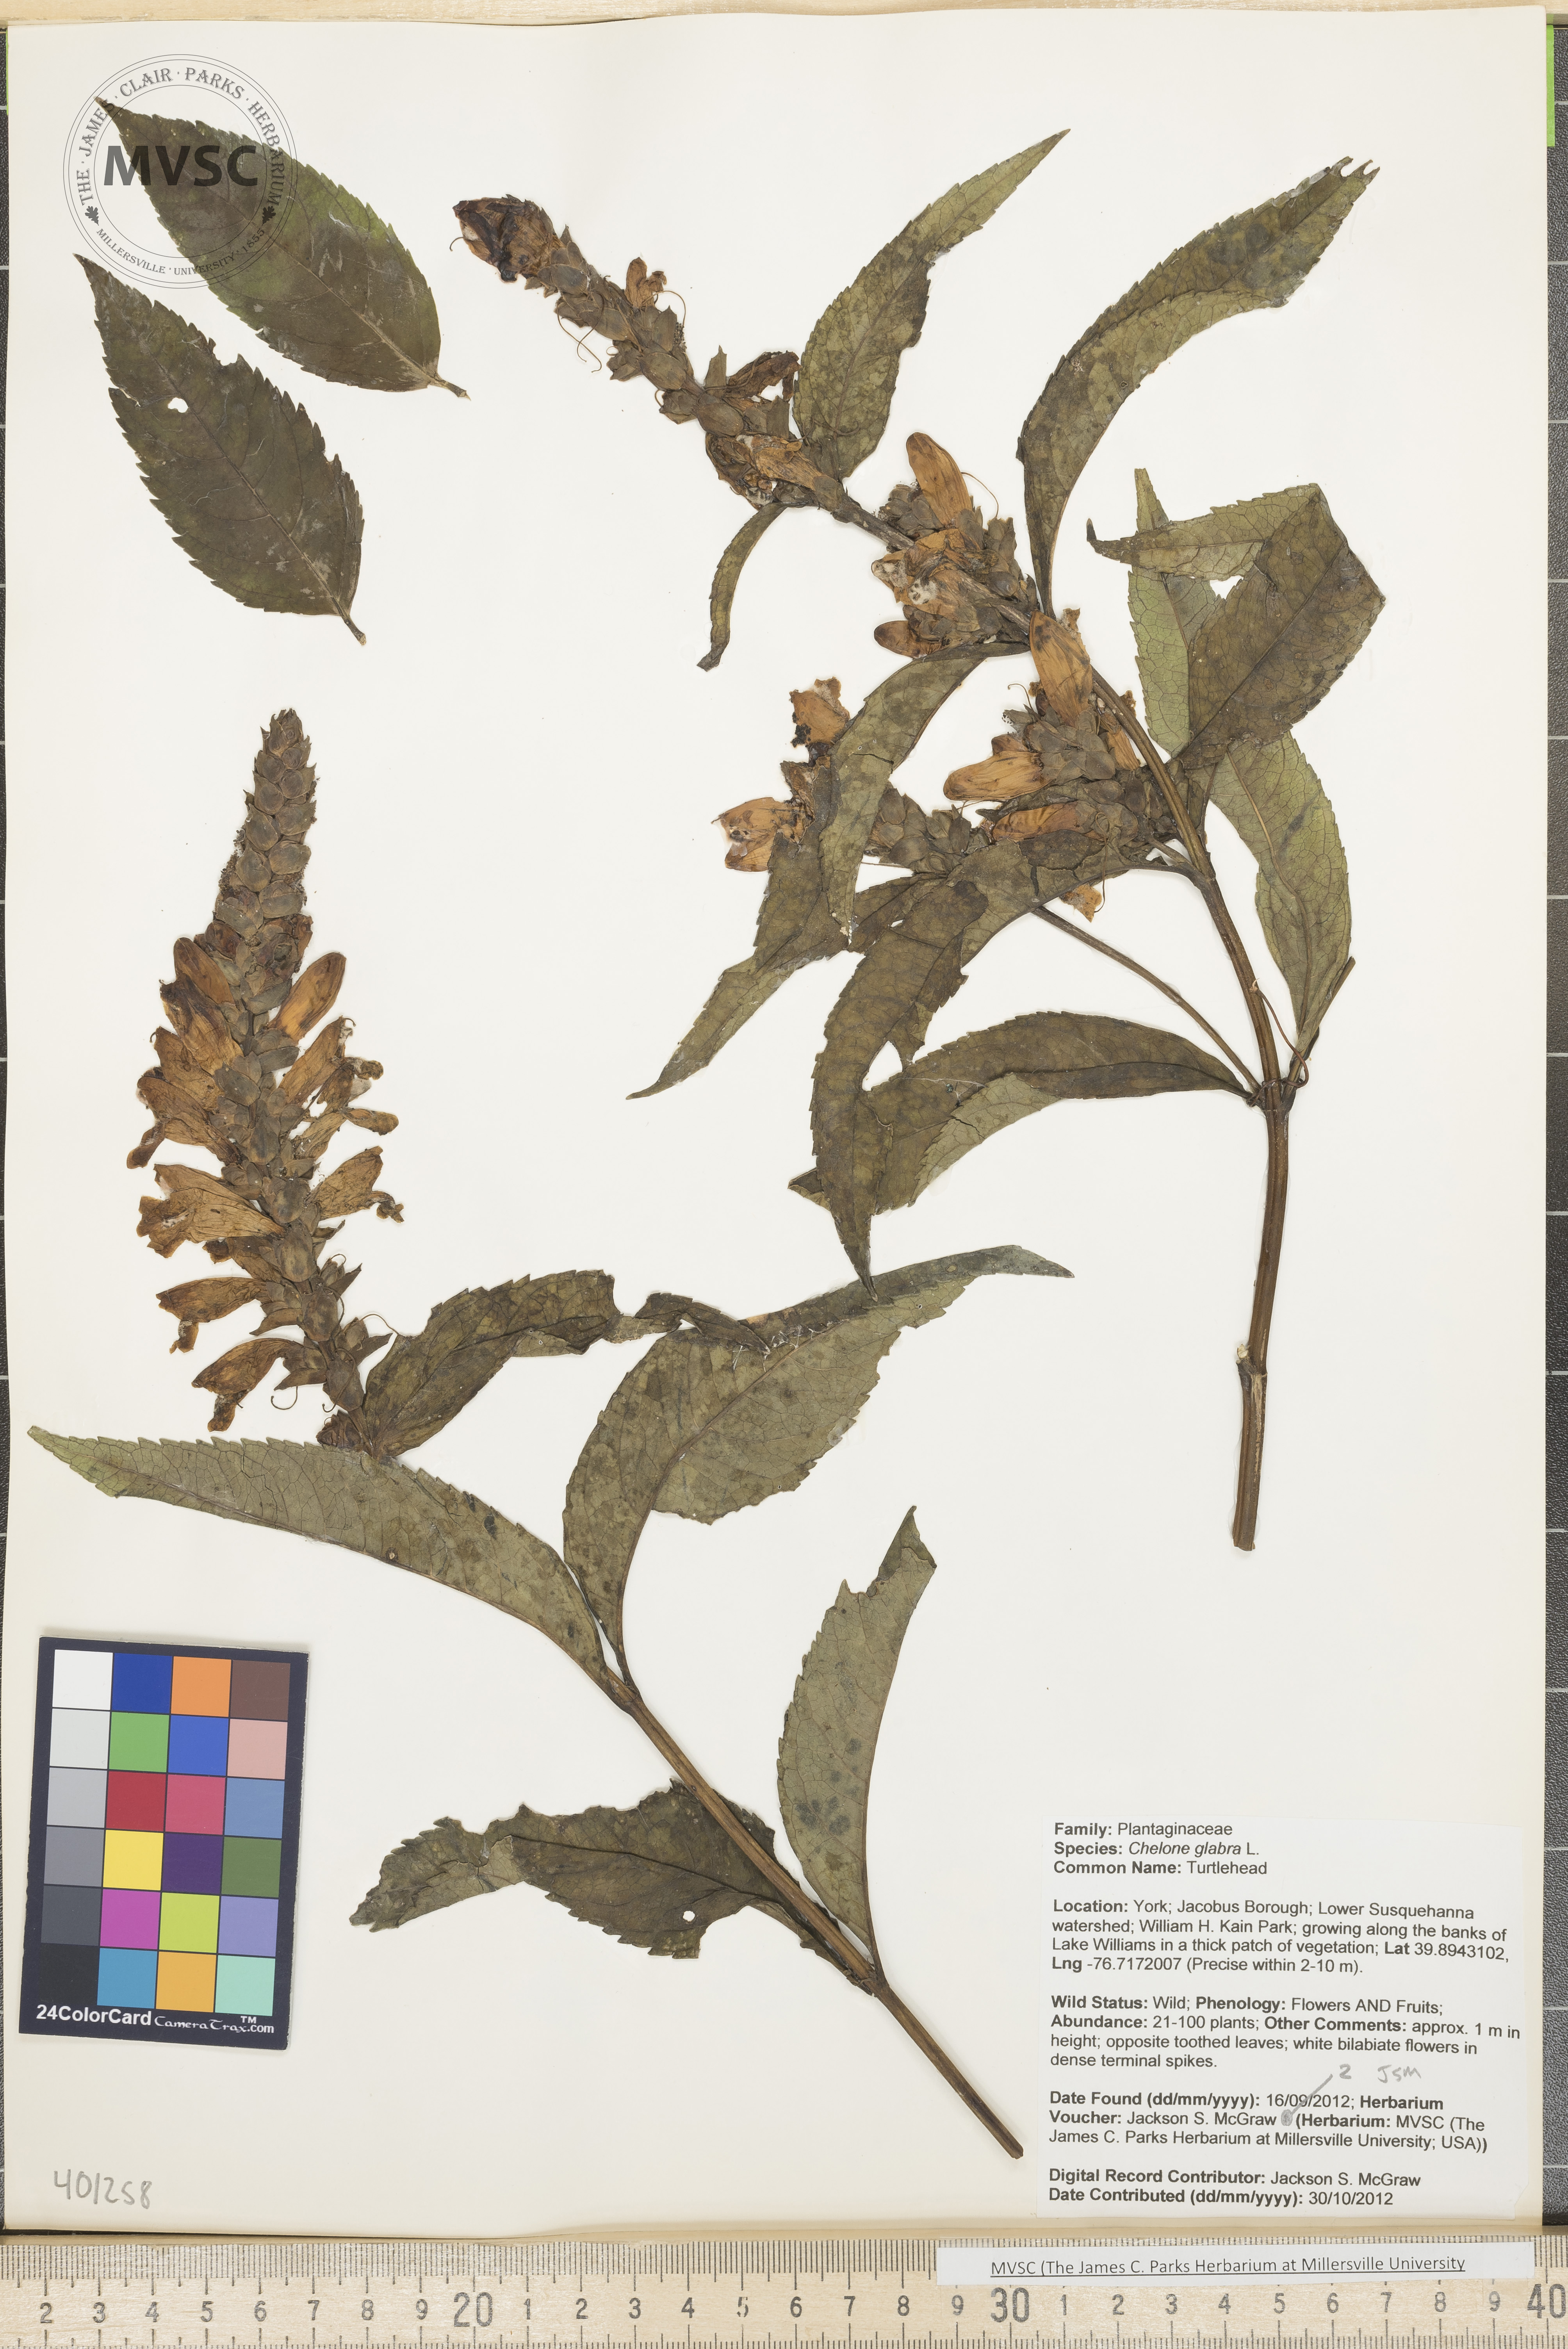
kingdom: Plantae
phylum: Tracheophyta
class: Magnoliopsida
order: Lamiales
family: Plantaginaceae
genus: Chelone
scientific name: Chelone glabra
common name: Turtlehead
